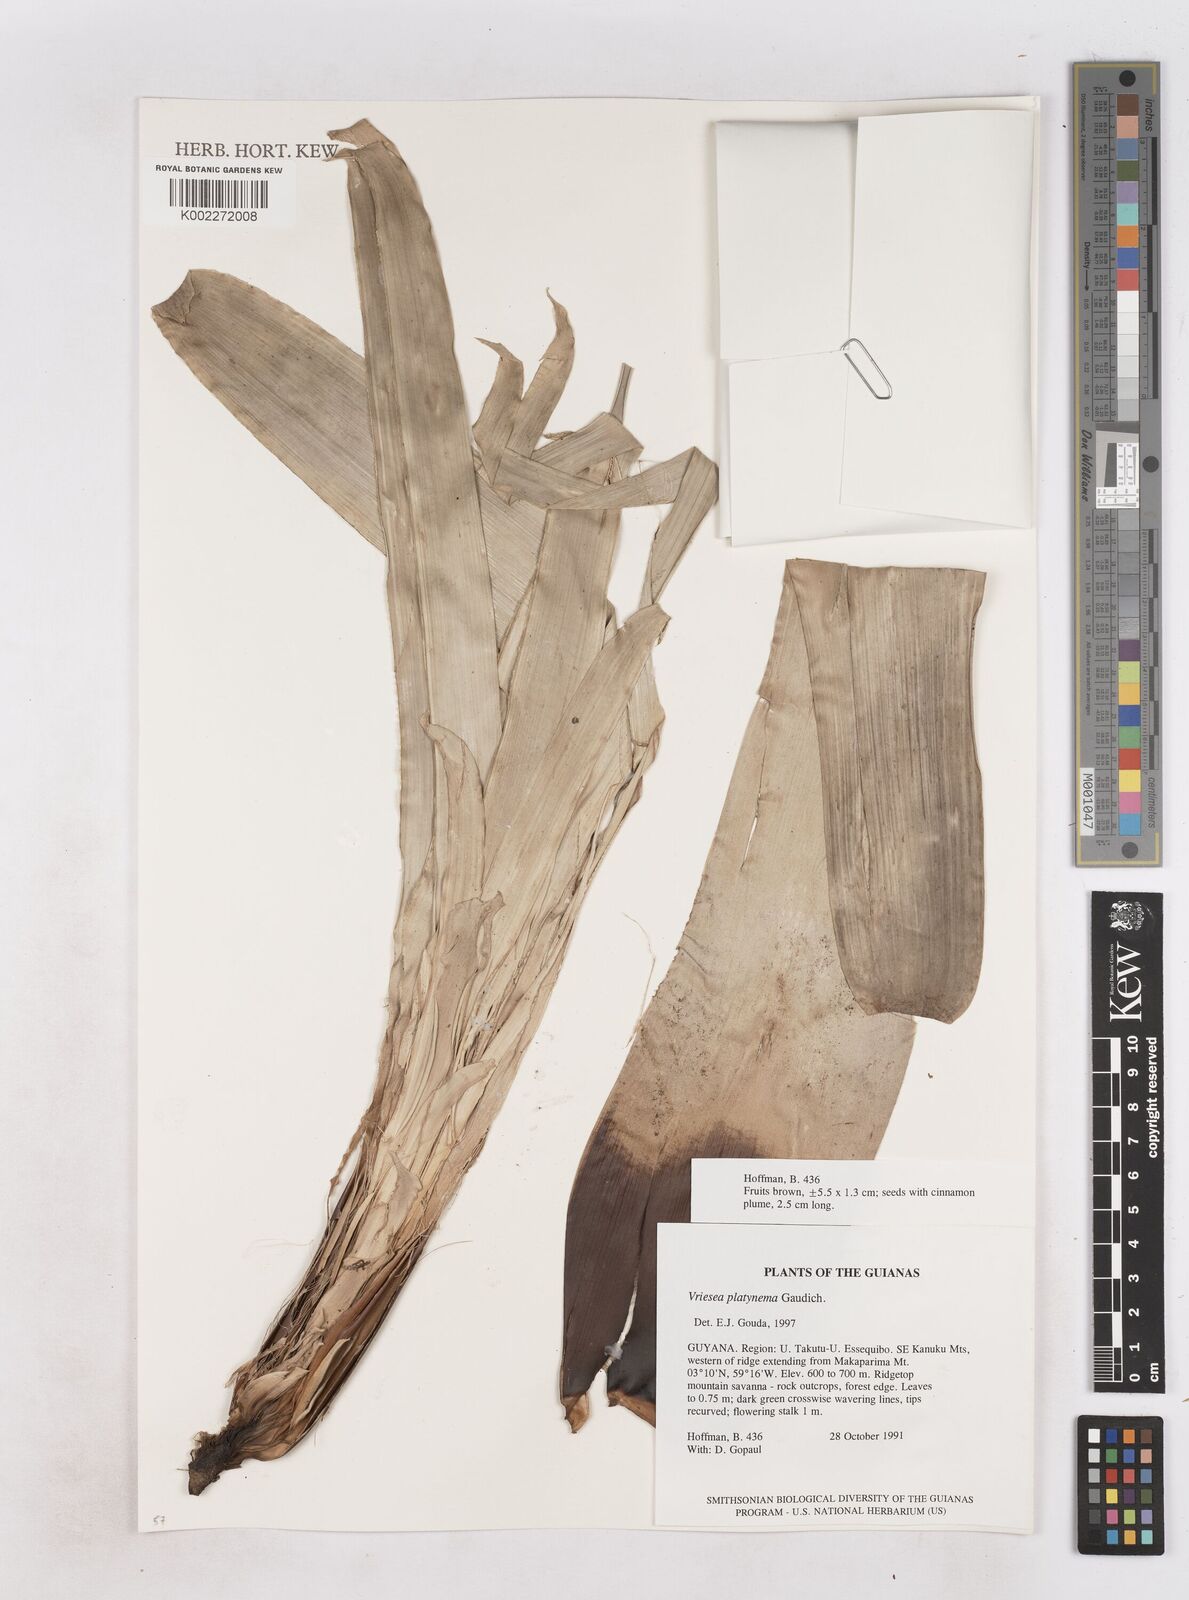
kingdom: Plantae
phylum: Tracheophyta
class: Liliopsida
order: Poales
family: Bromeliaceae
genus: Vriesea
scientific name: Vriesea platynema
